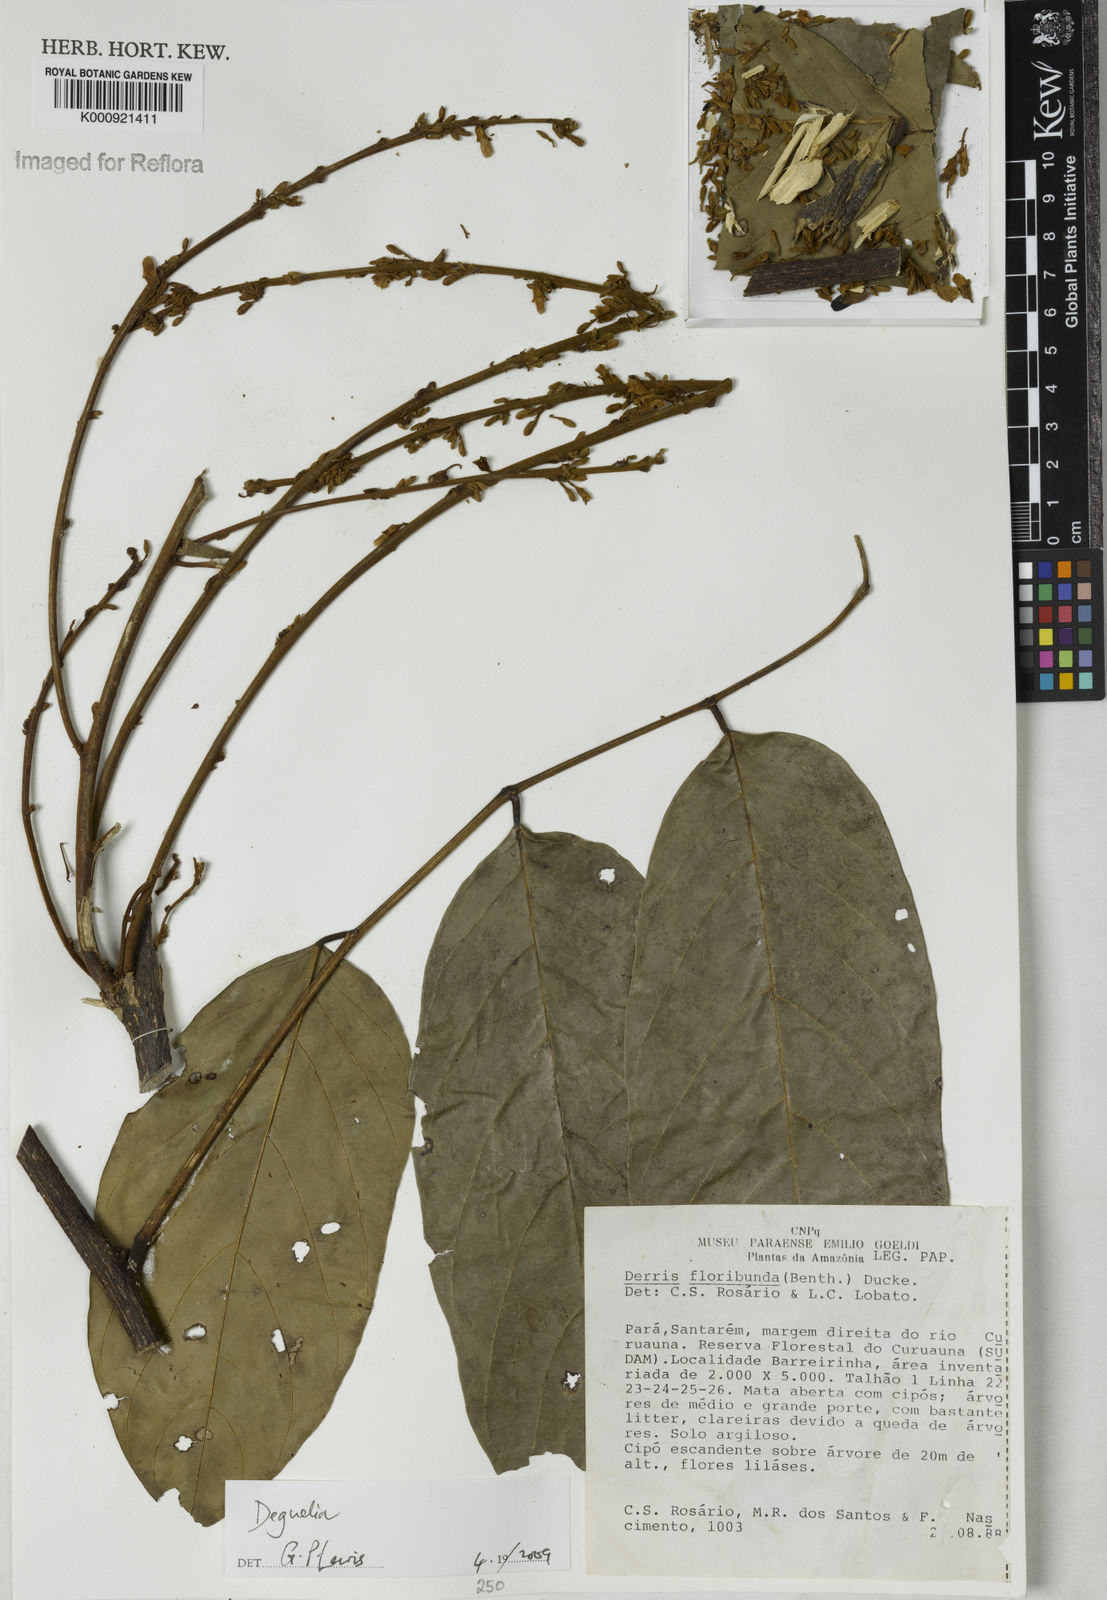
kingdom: Plantae
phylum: Tracheophyta
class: Magnoliopsida
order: Fabales
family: Fabaceae
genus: Deguelia
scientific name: Deguelia
